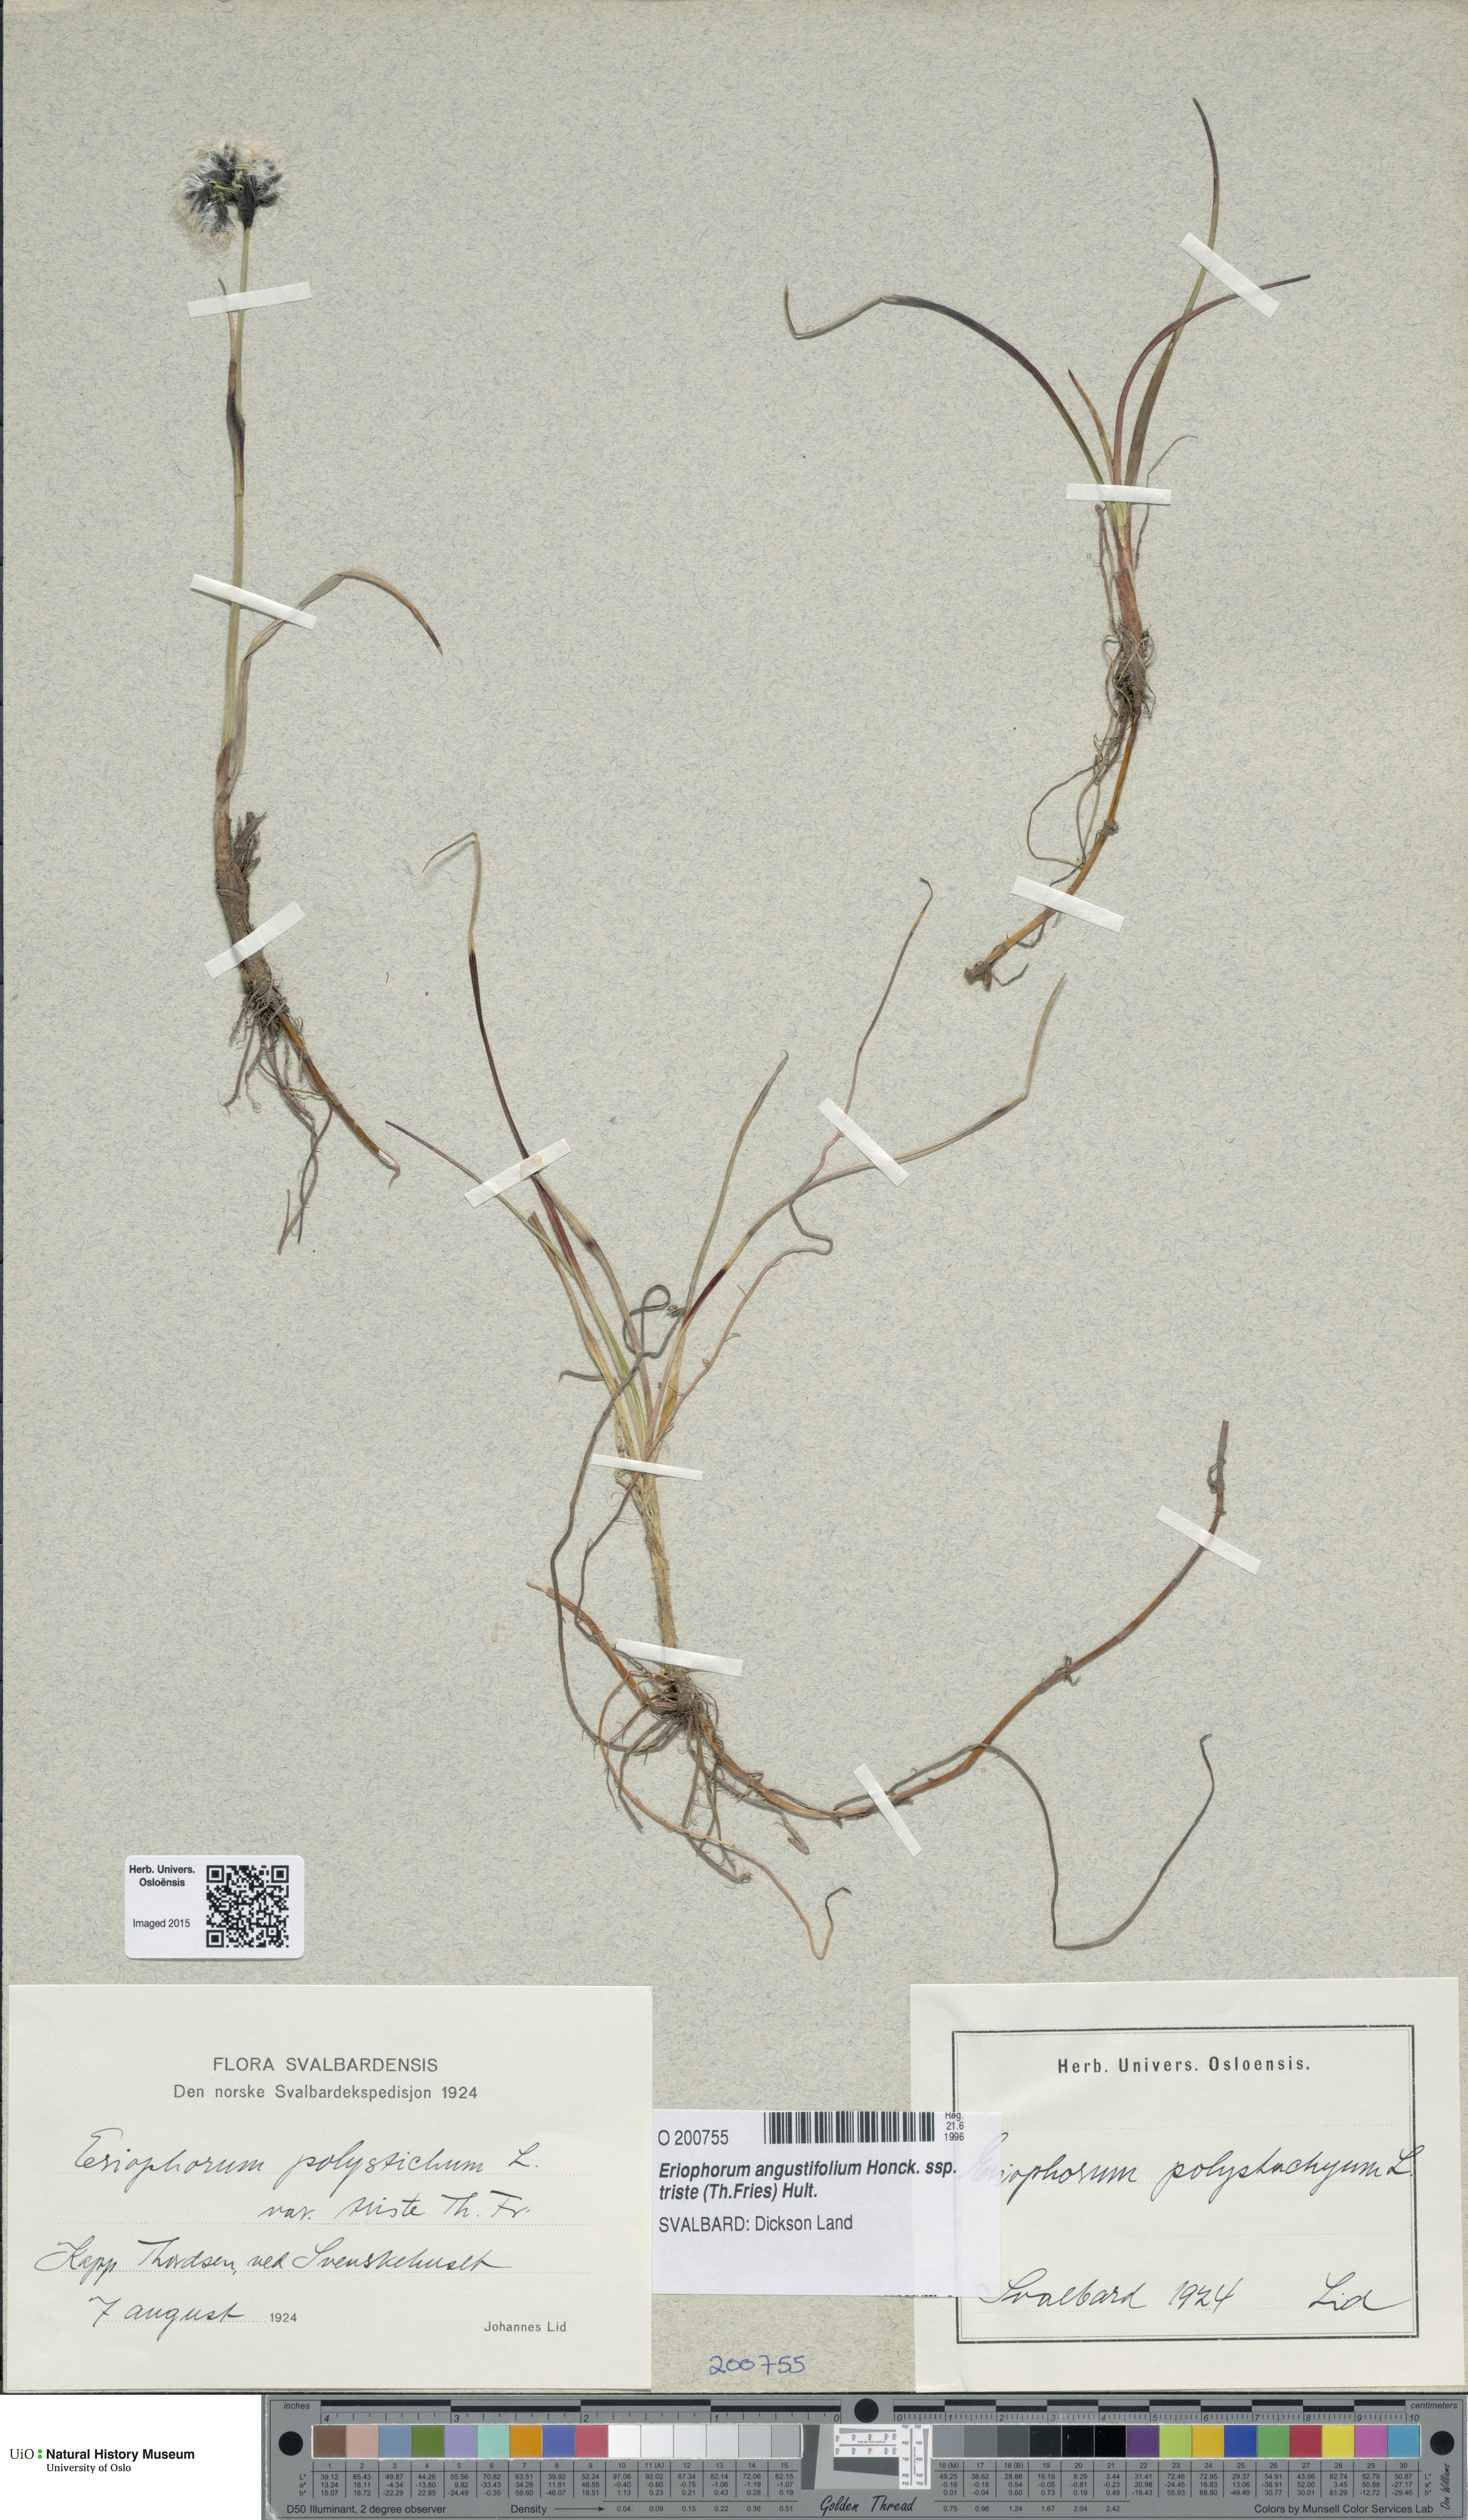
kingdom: Plantae
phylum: Tracheophyta
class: Liliopsida
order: Poales
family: Cyperaceae
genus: Eriophorum
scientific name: Eriophorum triste
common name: Tall cottongrass
